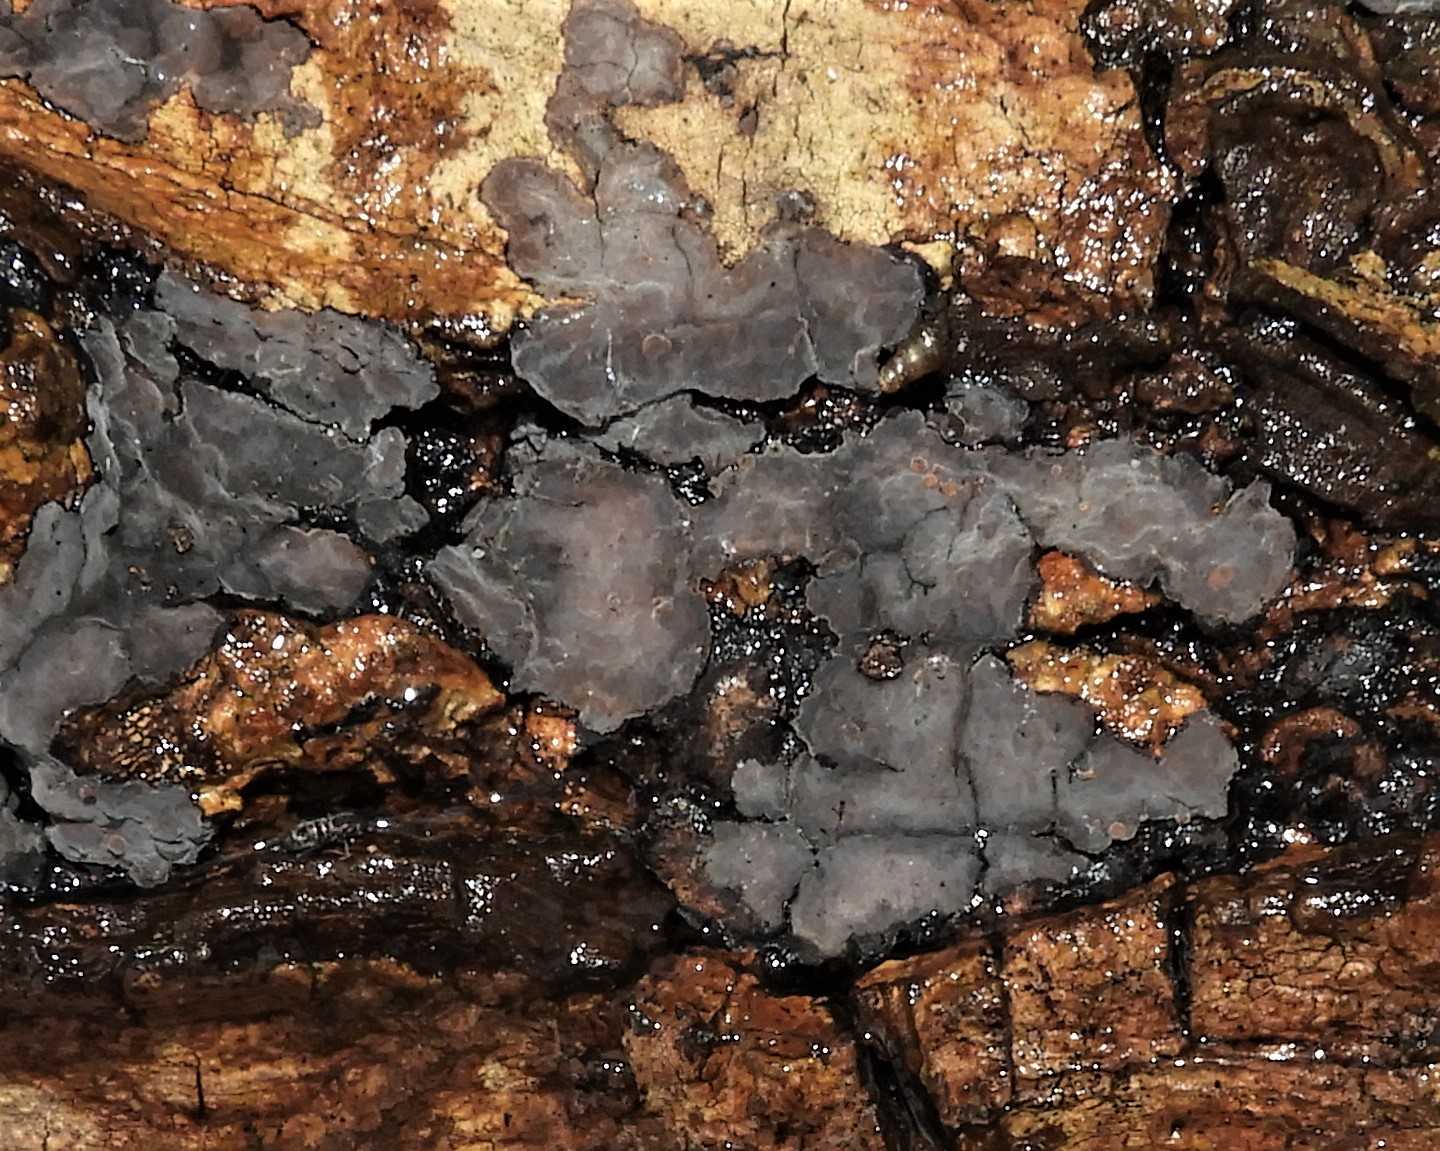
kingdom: Fungi
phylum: Basidiomycota
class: Agaricomycetes
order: Russulales
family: Peniophoraceae
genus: Peniophora
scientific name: Peniophora quercina
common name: ege-voksskind
